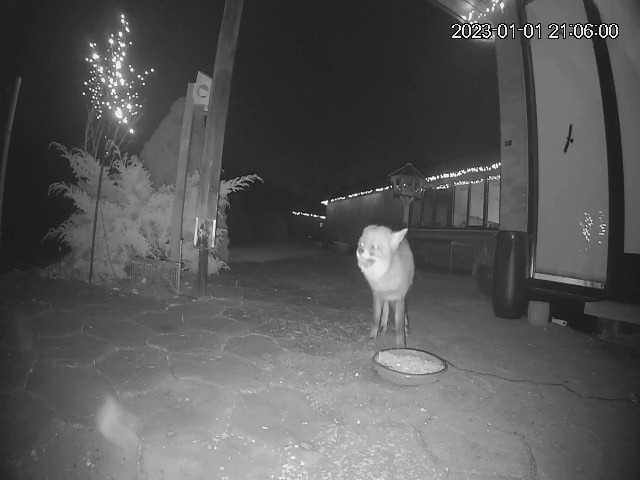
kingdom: Animalia
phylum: Chordata
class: Mammalia
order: Carnivora
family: Canidae
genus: Vulpes
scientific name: Vulpes vulpes
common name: Ræv
